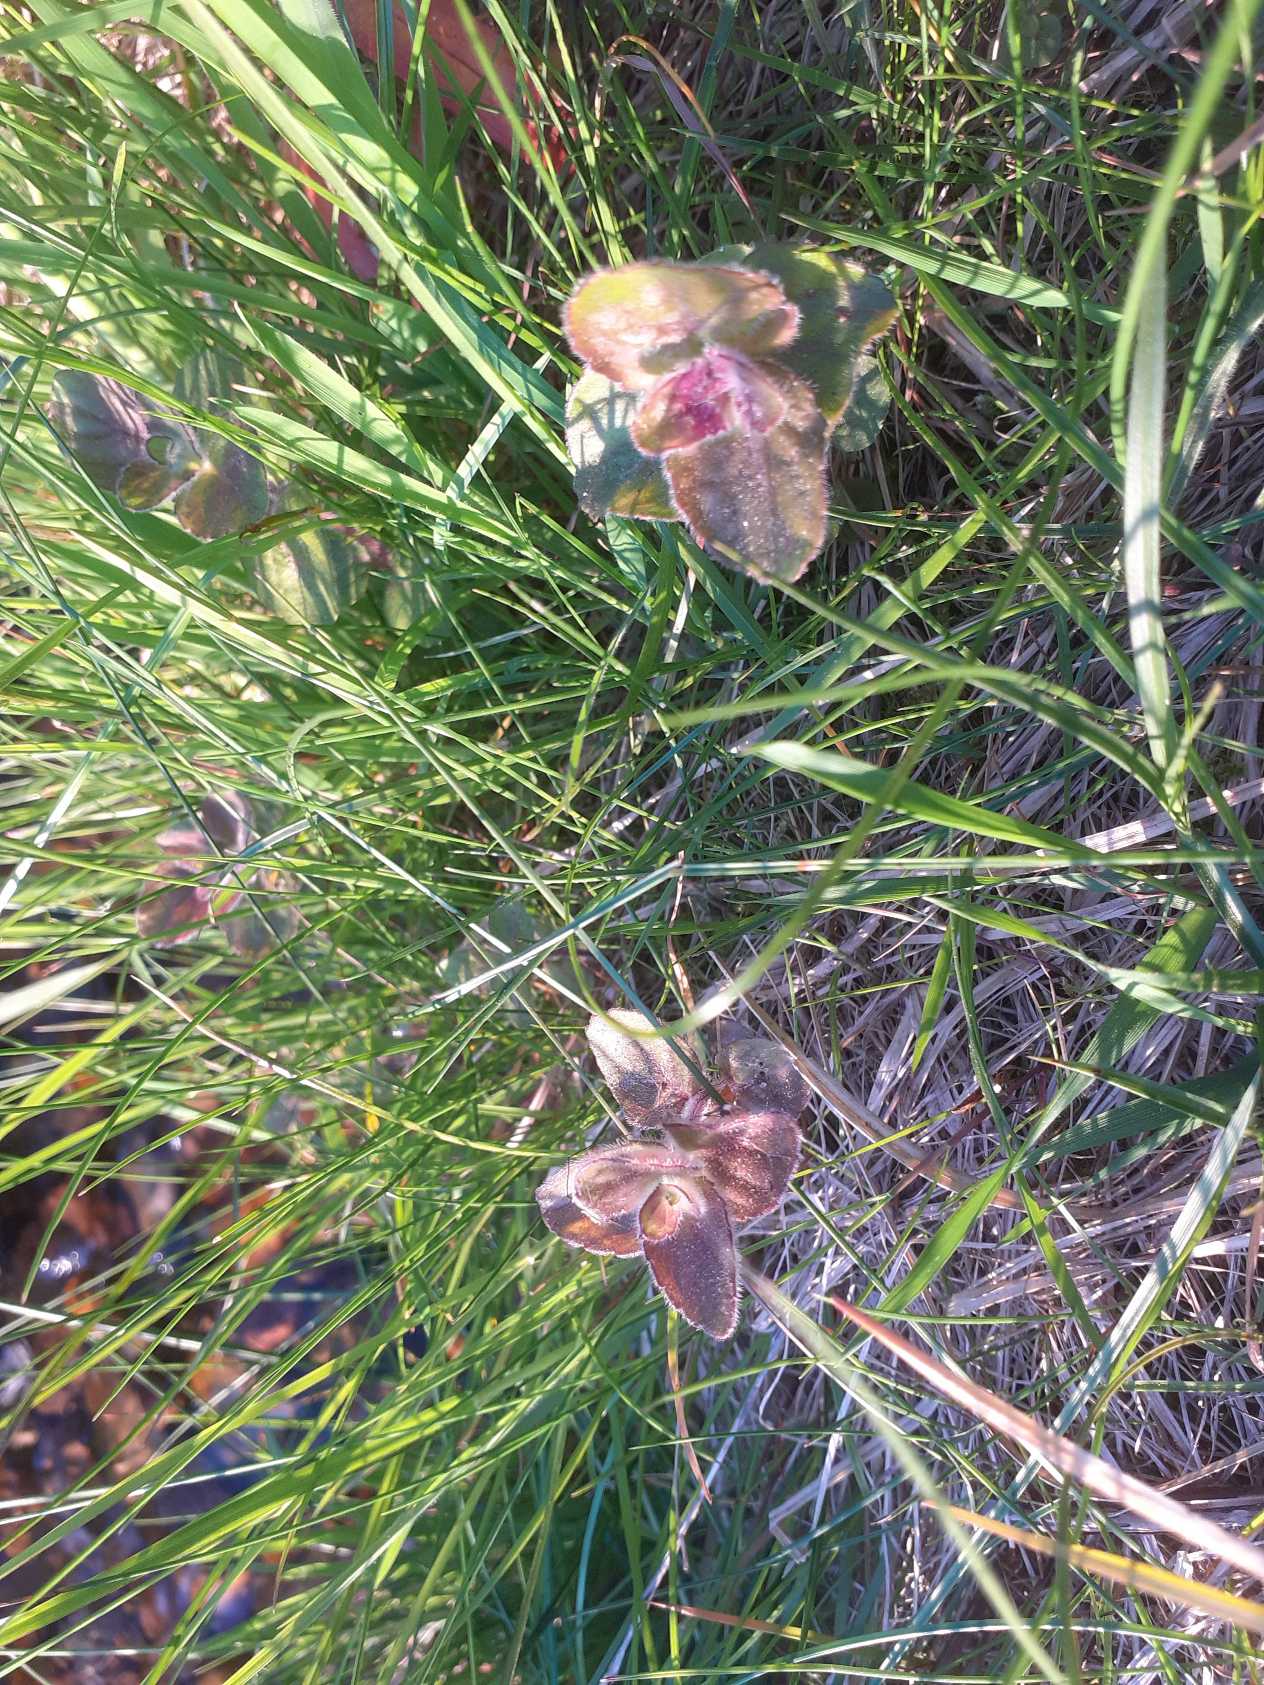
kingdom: Plantae
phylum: Tracheophyta
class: Magnoliopsida
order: Lamiales
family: Lamiaceae
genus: Mentha
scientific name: Mentha aquatica
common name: Vand-mynte
